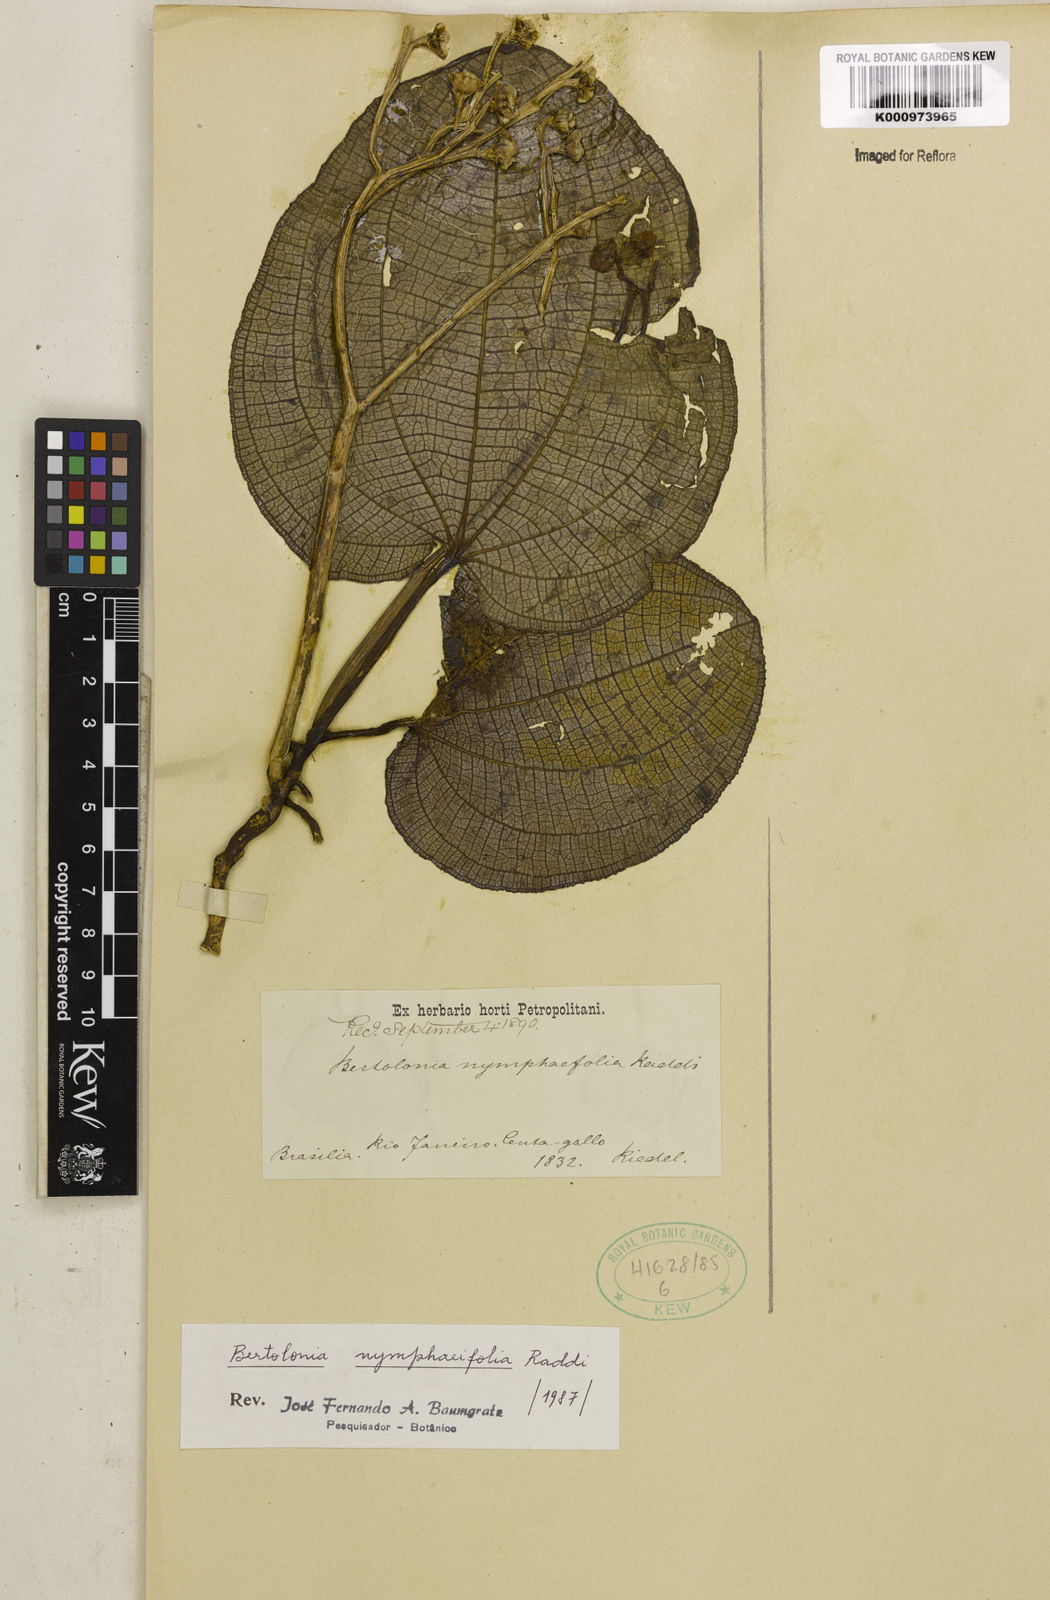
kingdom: Plantae
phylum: Tracheophyta
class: Magnoliopsida
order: Myrtales
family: Melastomataceae
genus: Bertolonia
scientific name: Bertolonia nymphaeifolia
